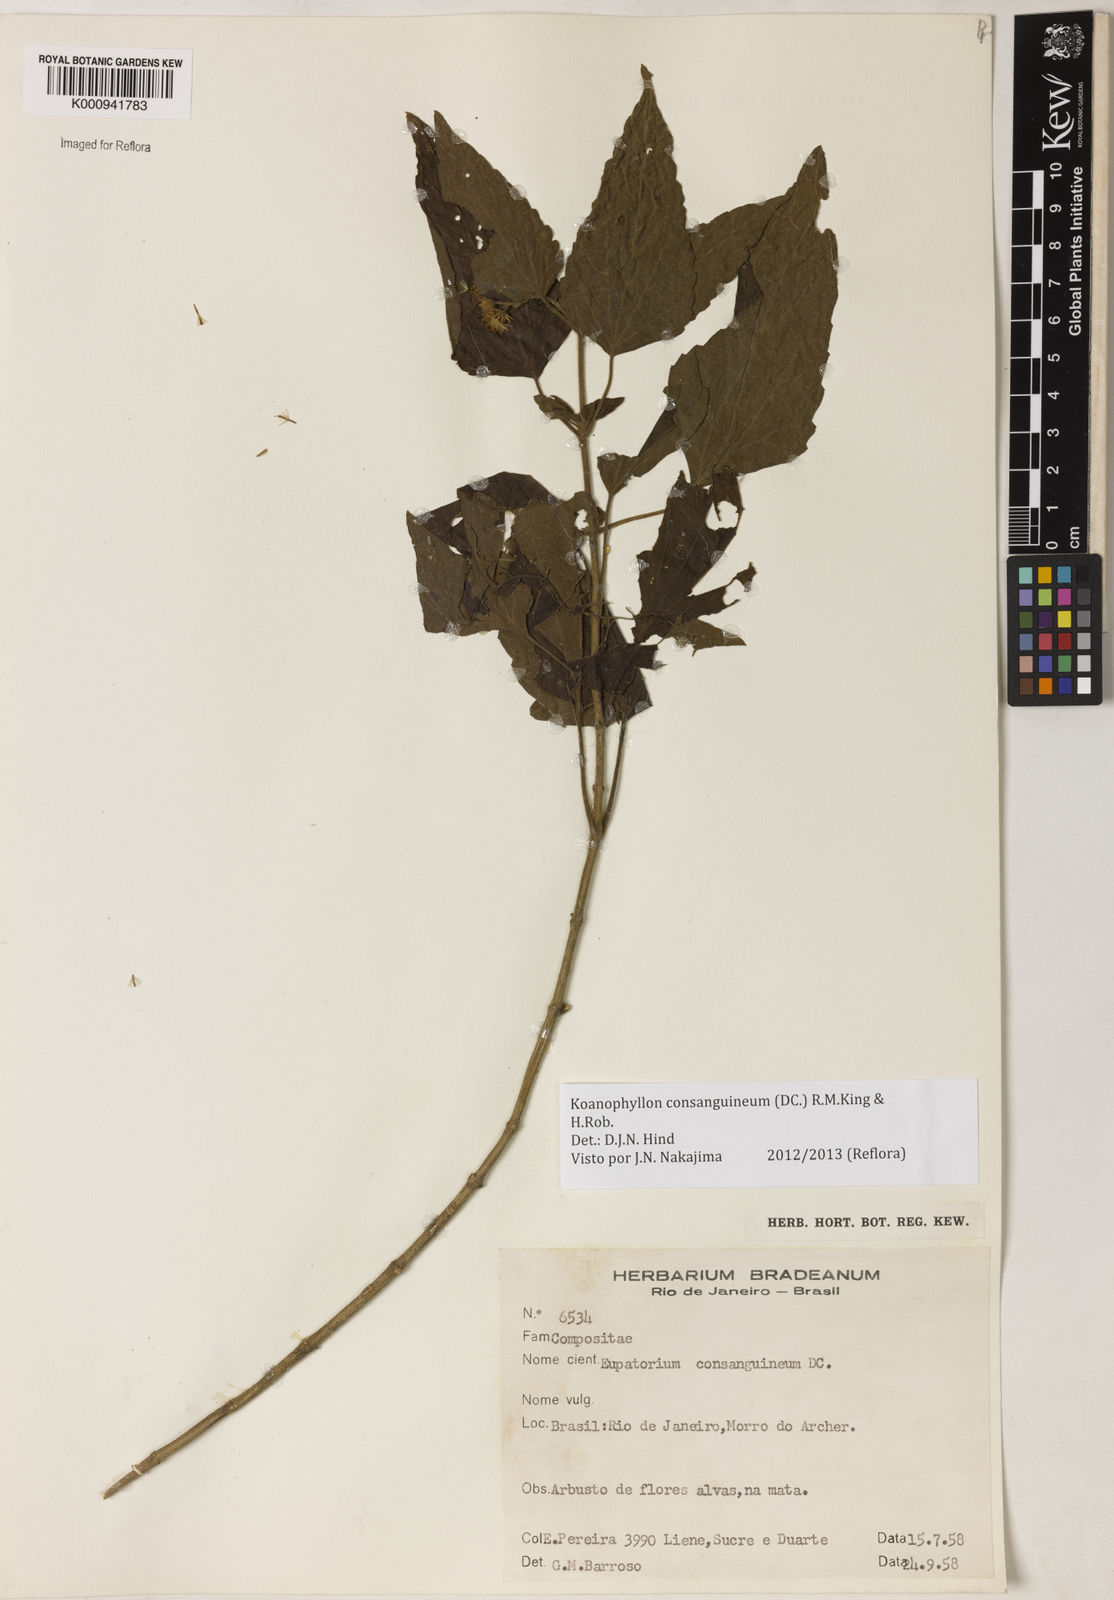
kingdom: Plantae
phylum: Tracheophyta
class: Magnoliopsida
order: Asterales
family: Asteraceae
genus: Koanophyllon
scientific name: Koanophyllon consanguineum
